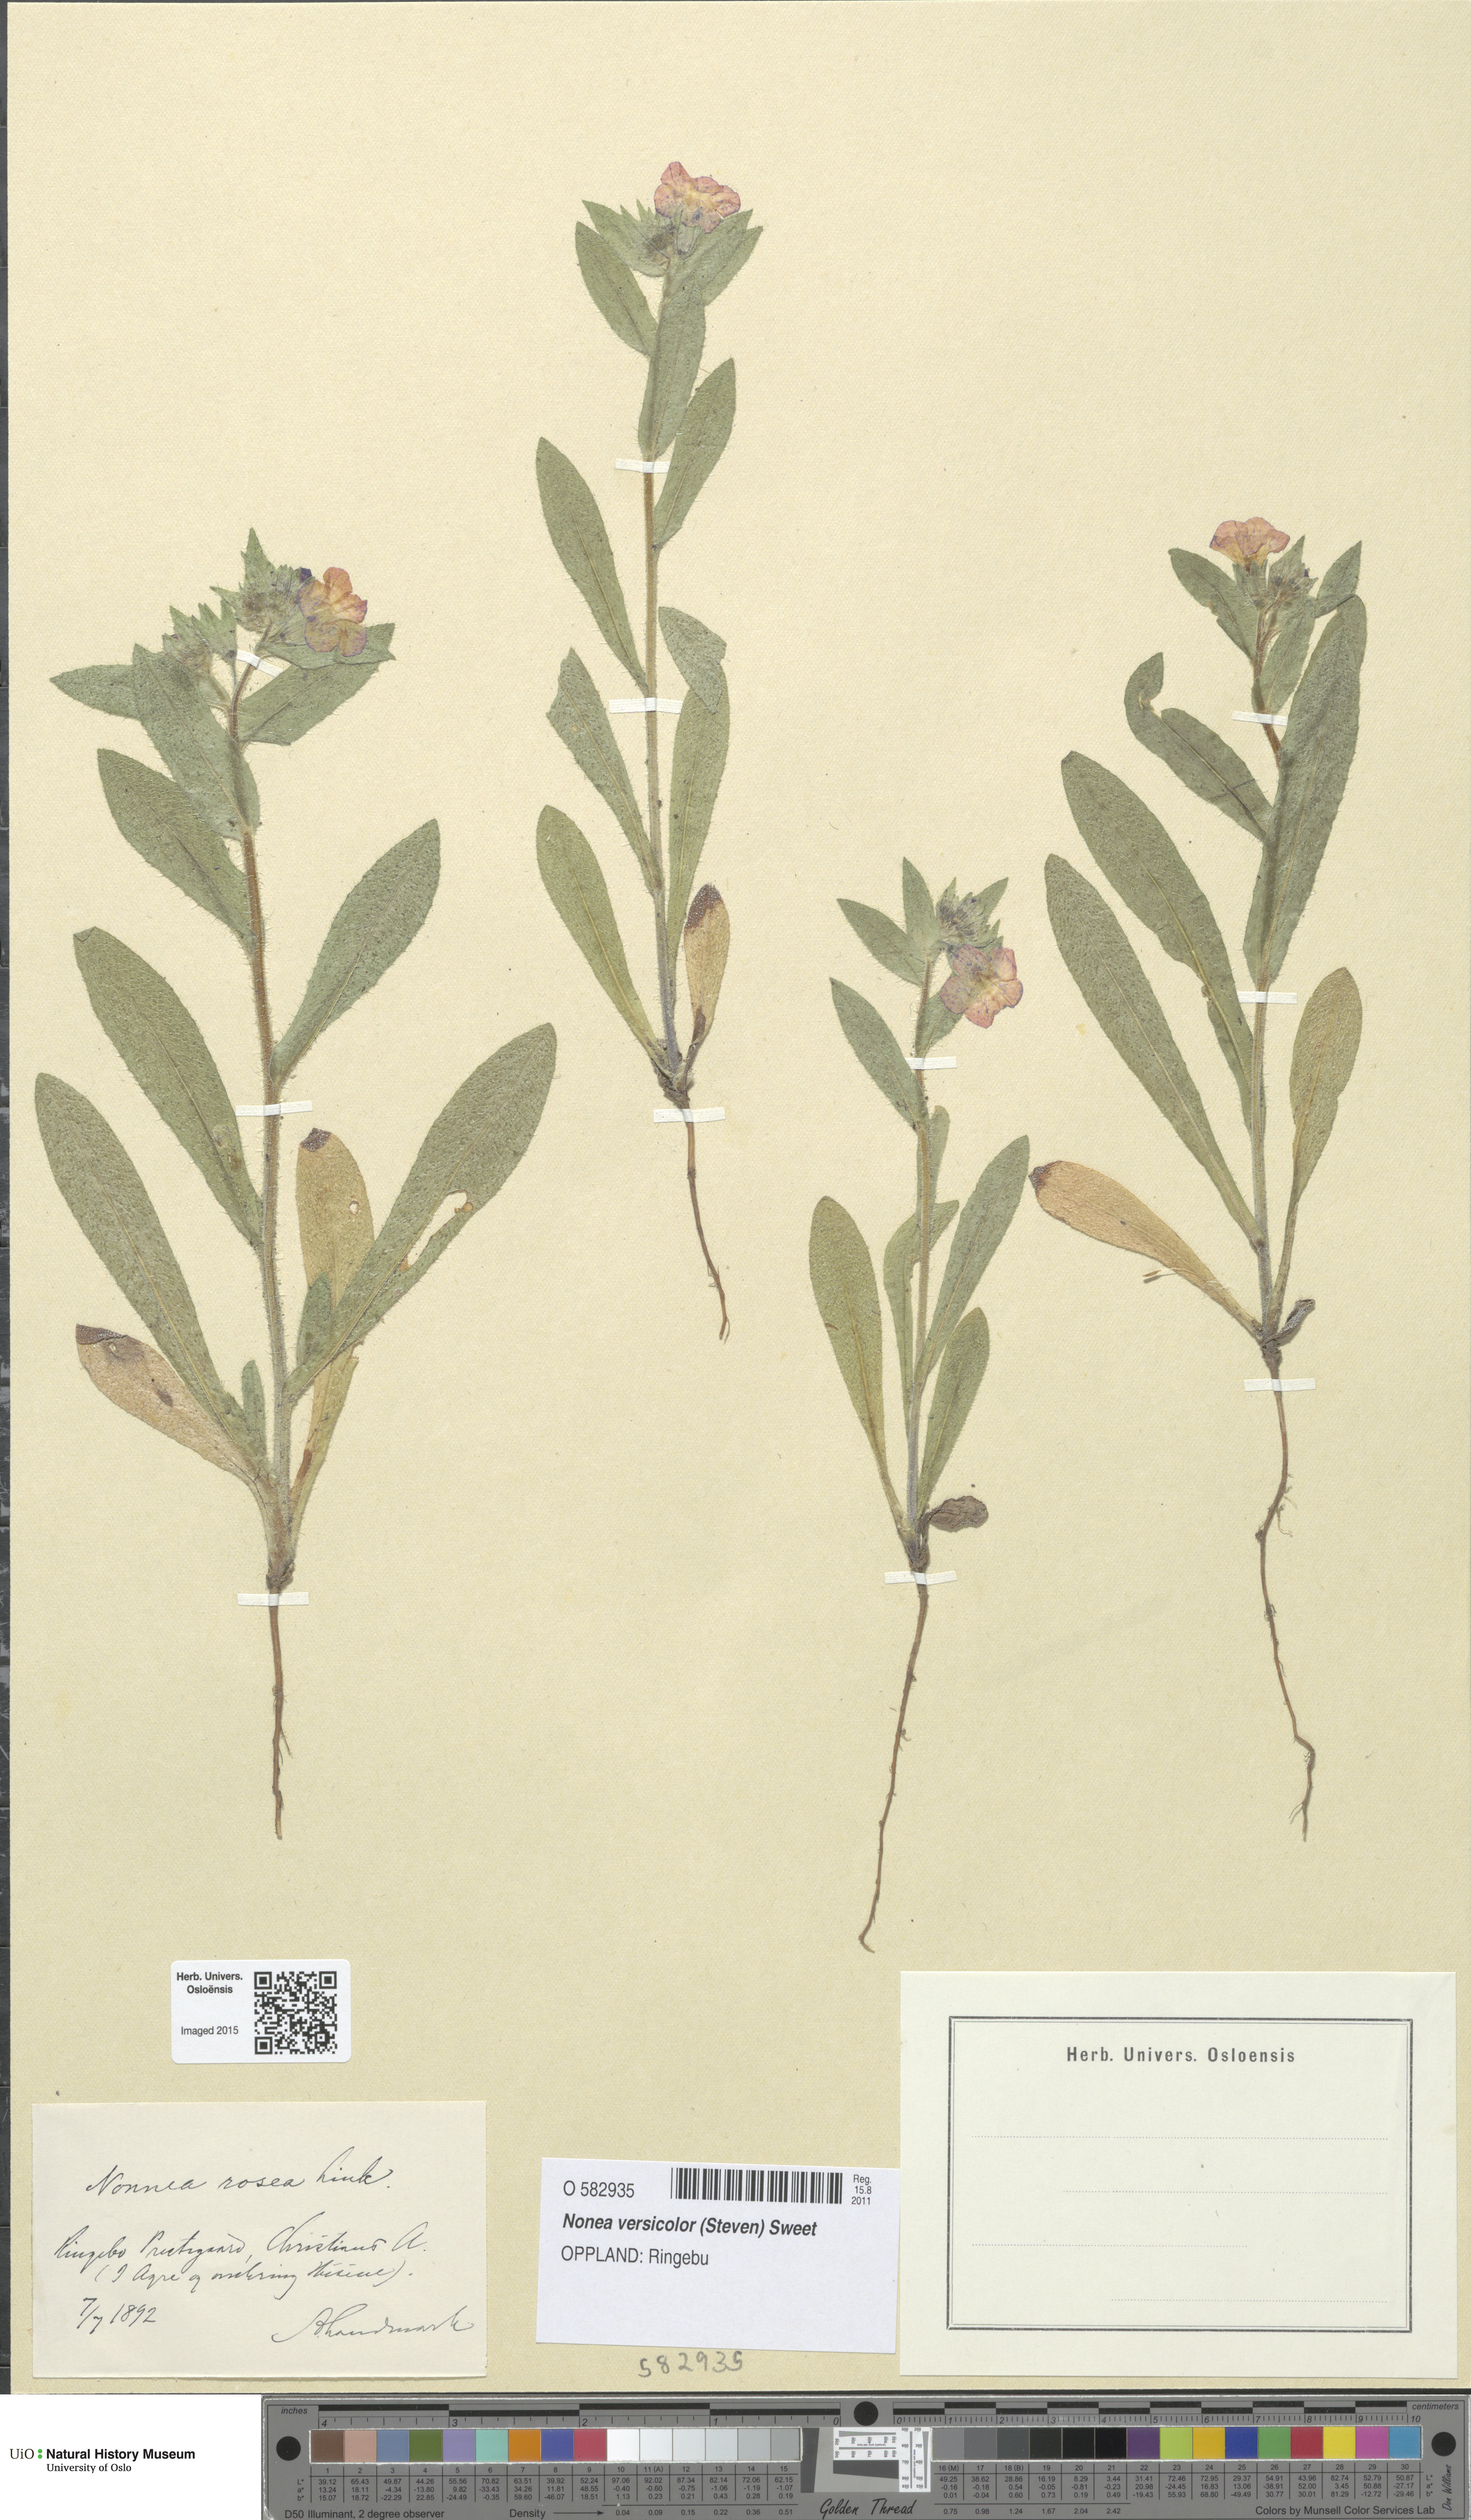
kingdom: Plantae
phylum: Tracheophyta
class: Magnoliopsida
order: Boraginales
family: Boraginaceae
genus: Nonea
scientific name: Nonea versicolor
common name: Varied monkswort
